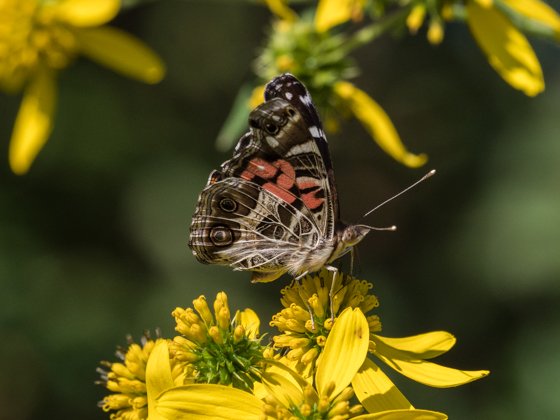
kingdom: Animalia
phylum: Arthropoda
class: Insecta
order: Lepidoptera
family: Nymphalidae
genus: Vanessa
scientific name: Vanessa virginiensis
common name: American Lady
